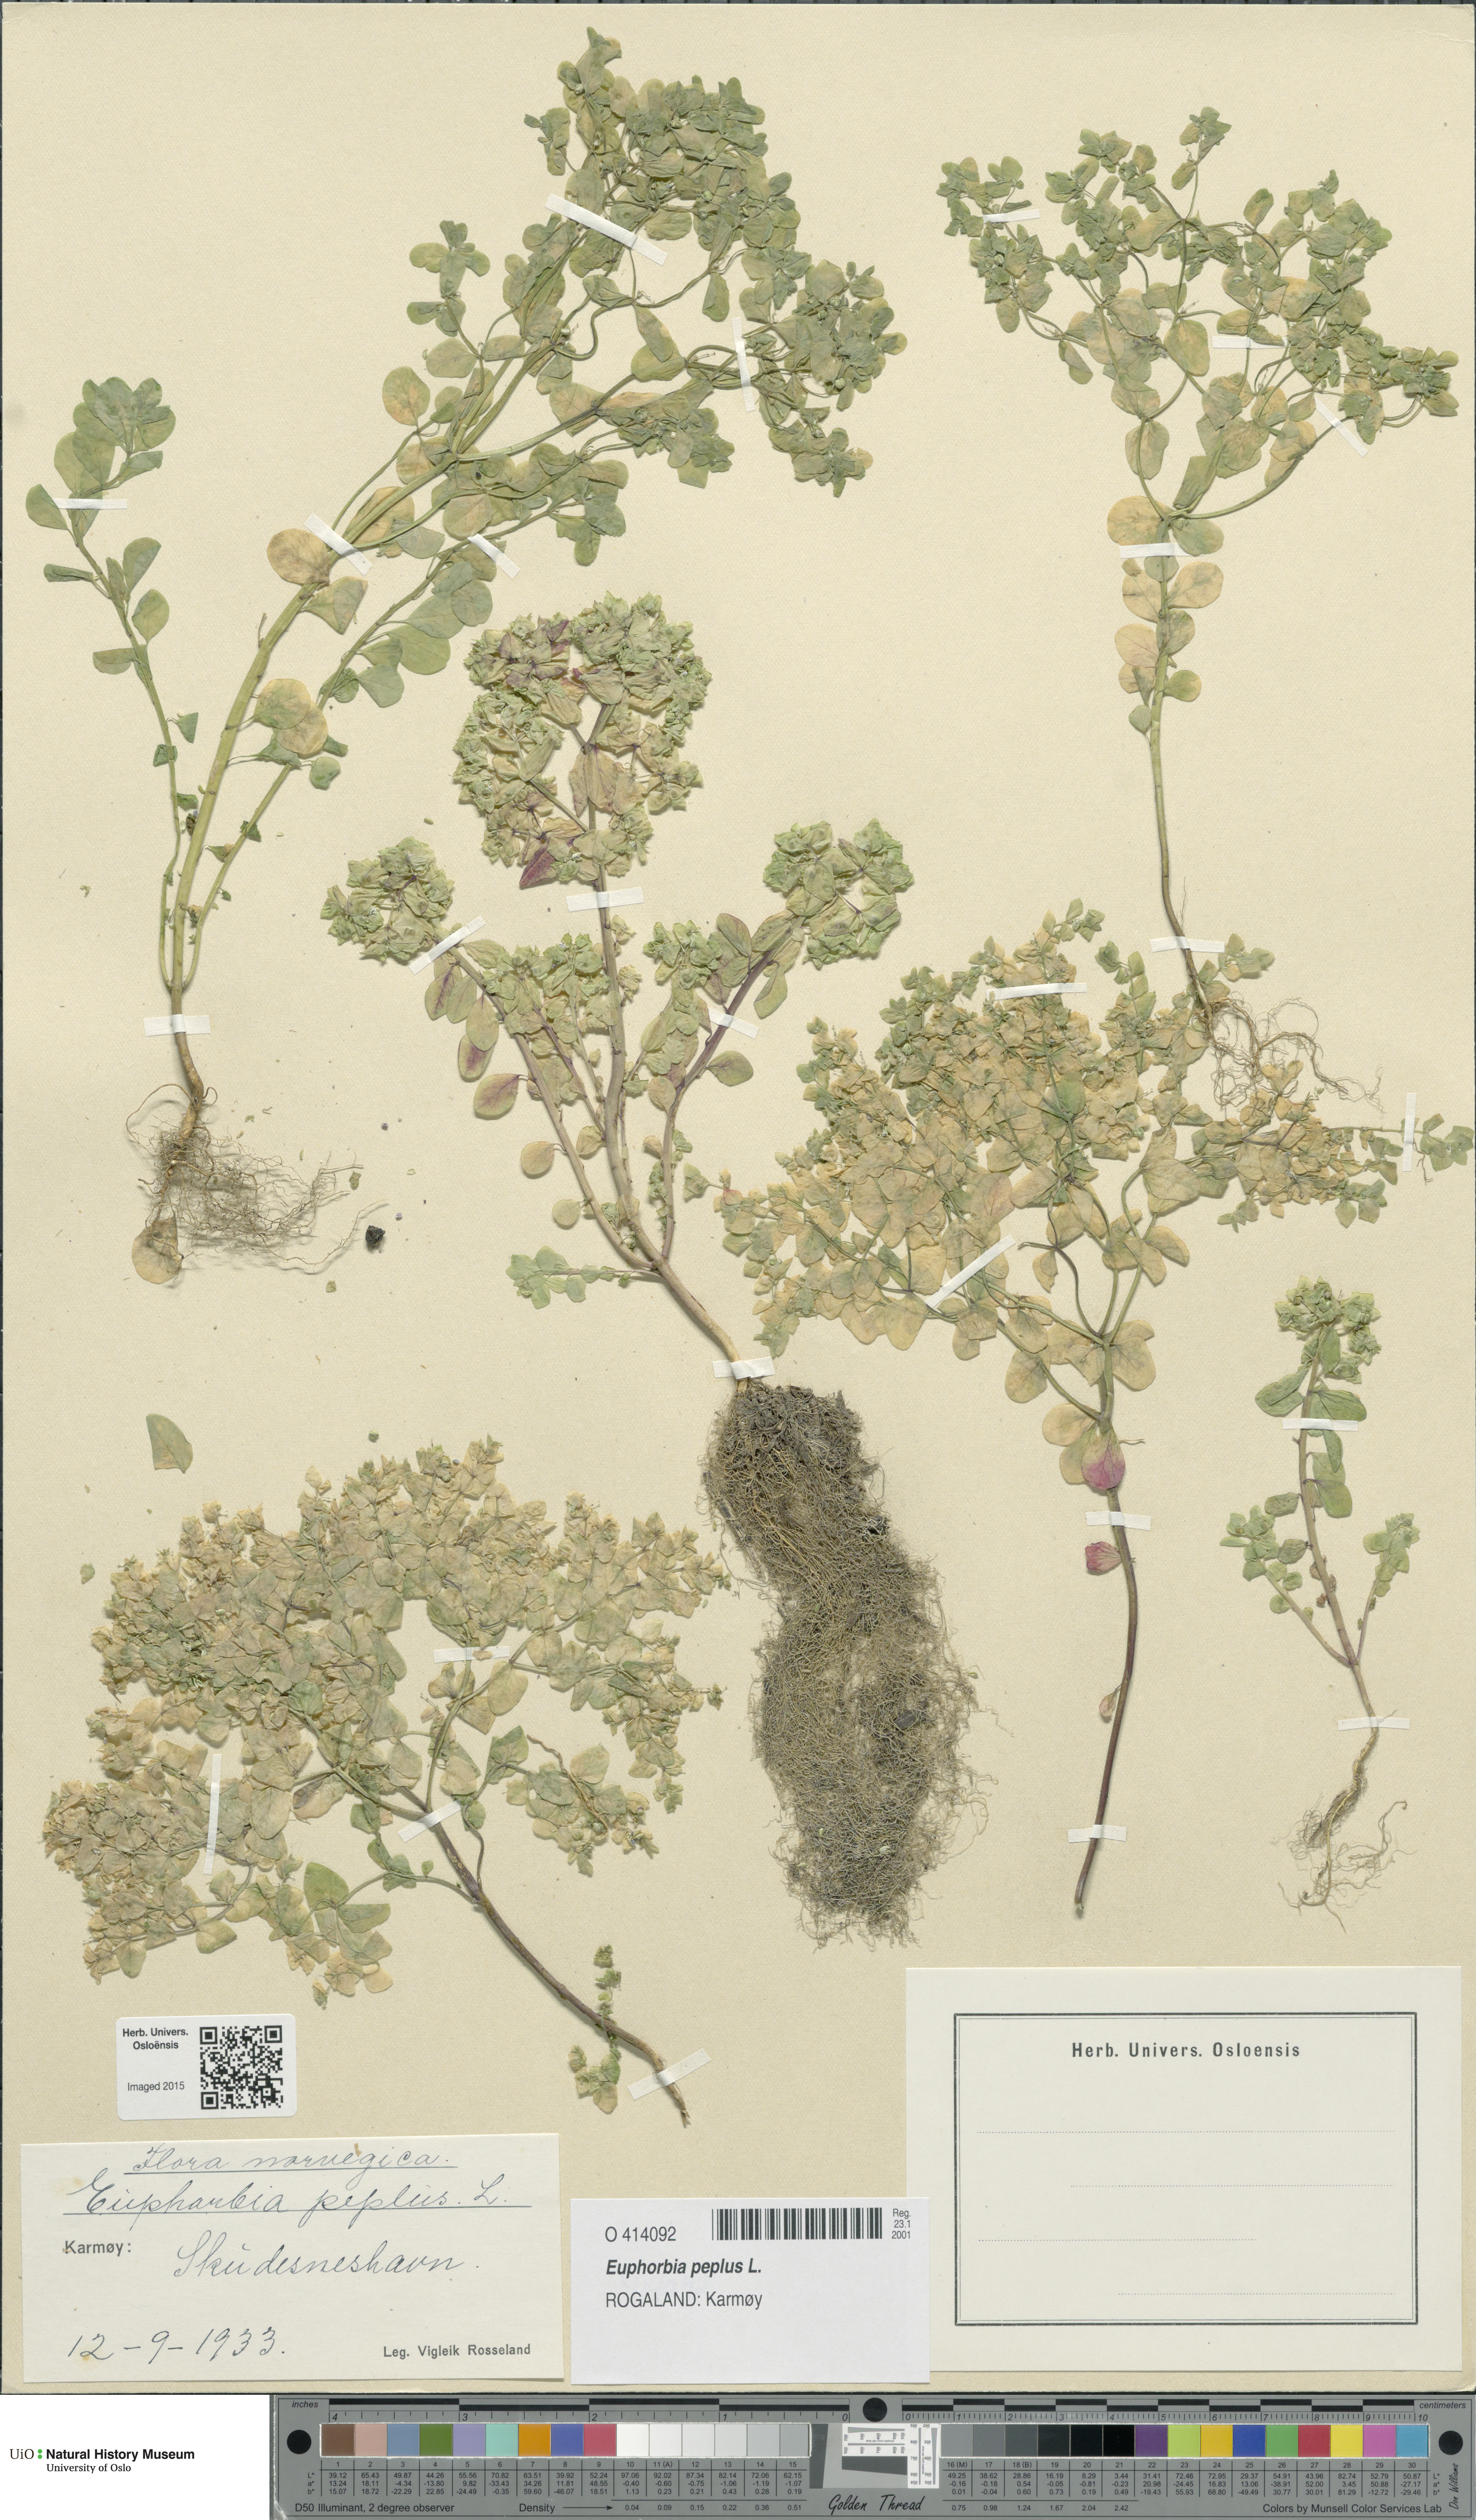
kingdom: Plantae
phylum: Tracheophyta
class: Magnoliopsida
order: Malpighiales
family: Euphorbiaceae
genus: Euphorbia
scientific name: Euphorbia peplus
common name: Petty spurge
